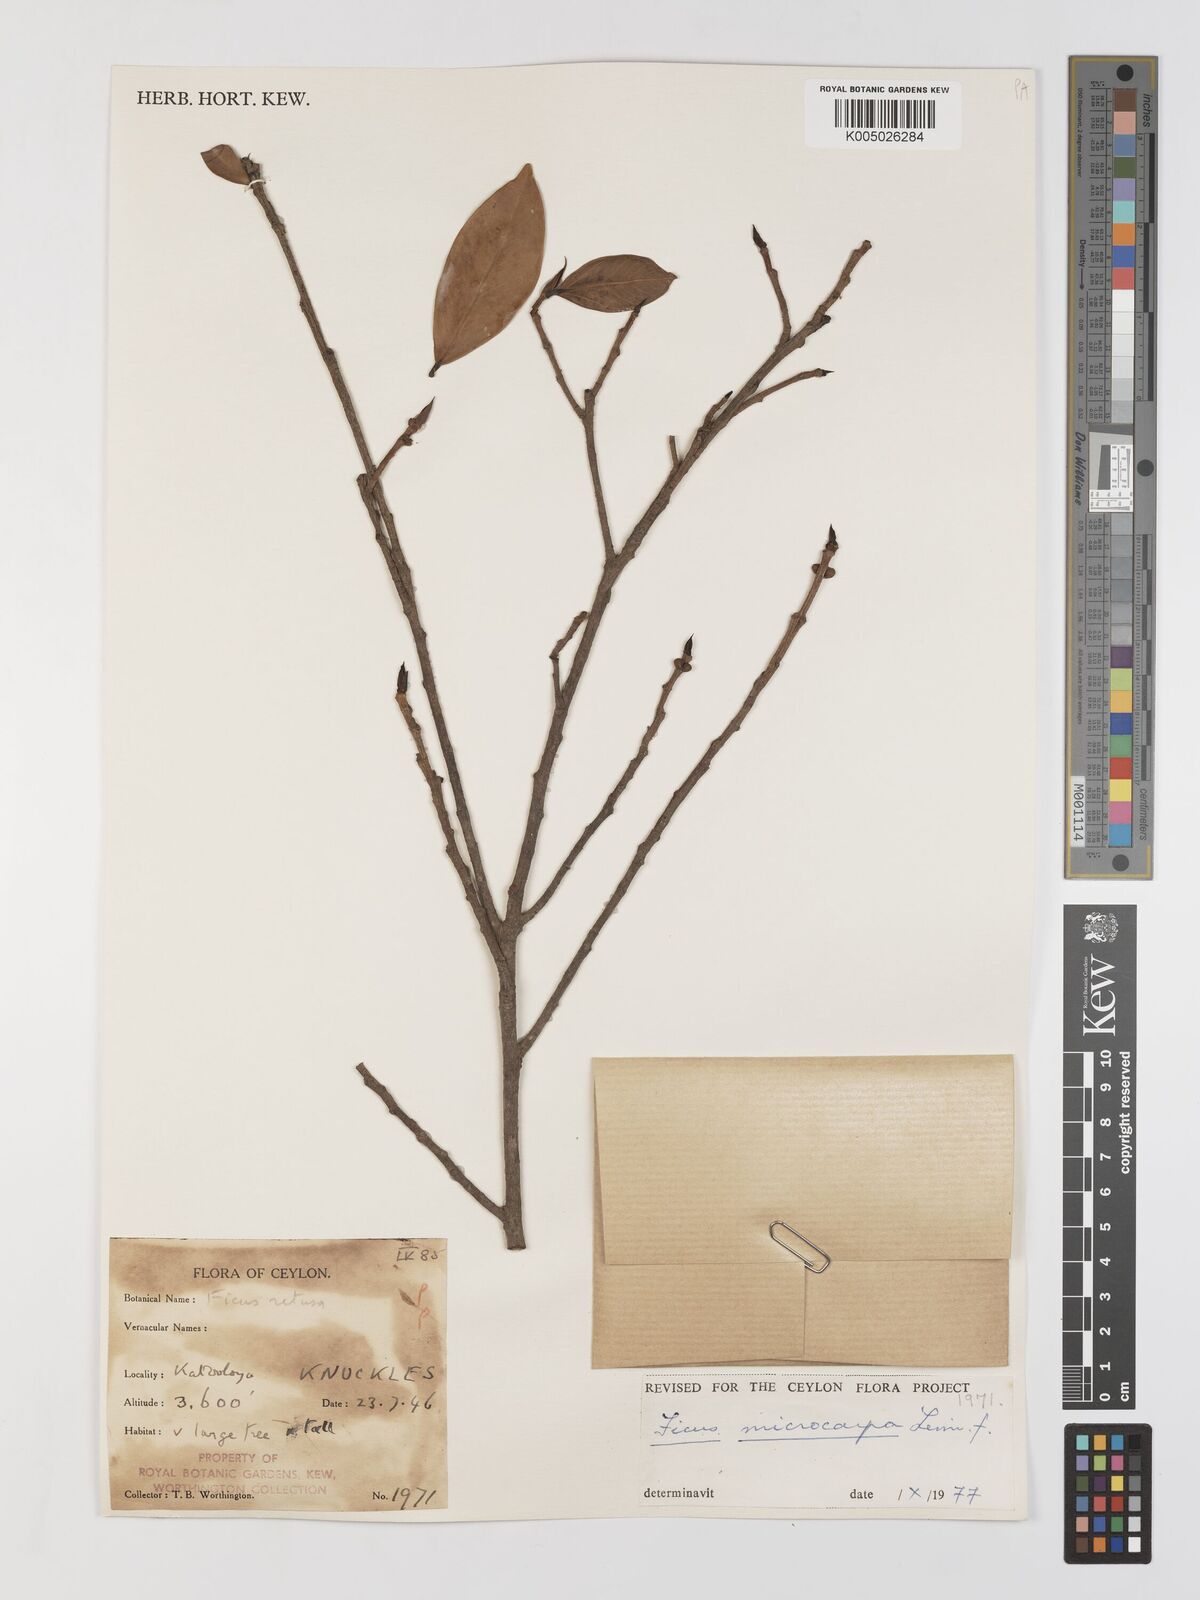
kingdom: Plantae
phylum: Tracheophyta
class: Magnoliopsida
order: Rosales
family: Moraceae
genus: Ficus
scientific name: Ficus
